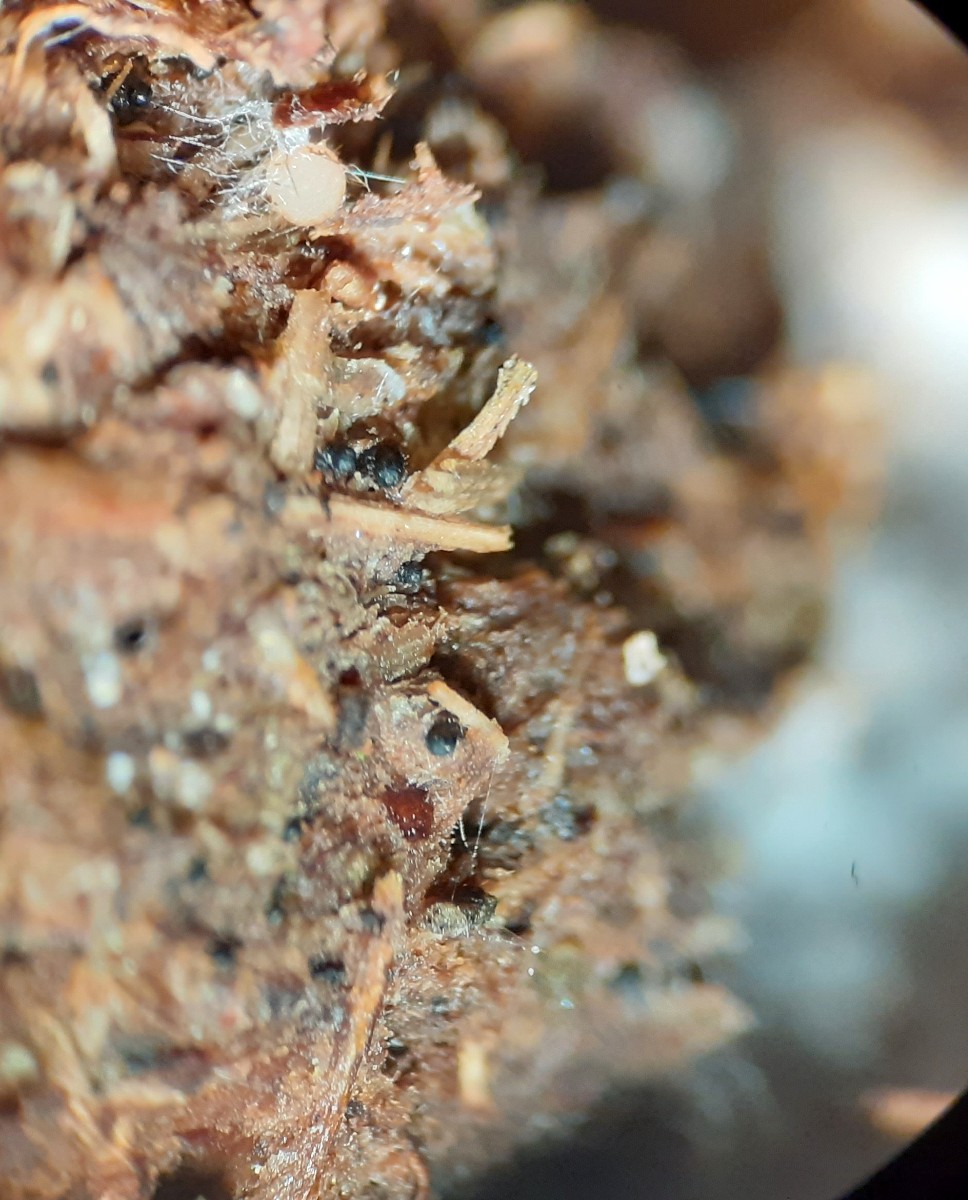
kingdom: Fungi
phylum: Ascomycota
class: Sordariomycetes
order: Sordariales
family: Podosporaceae
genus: Podospora
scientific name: Podospora intestinacea
